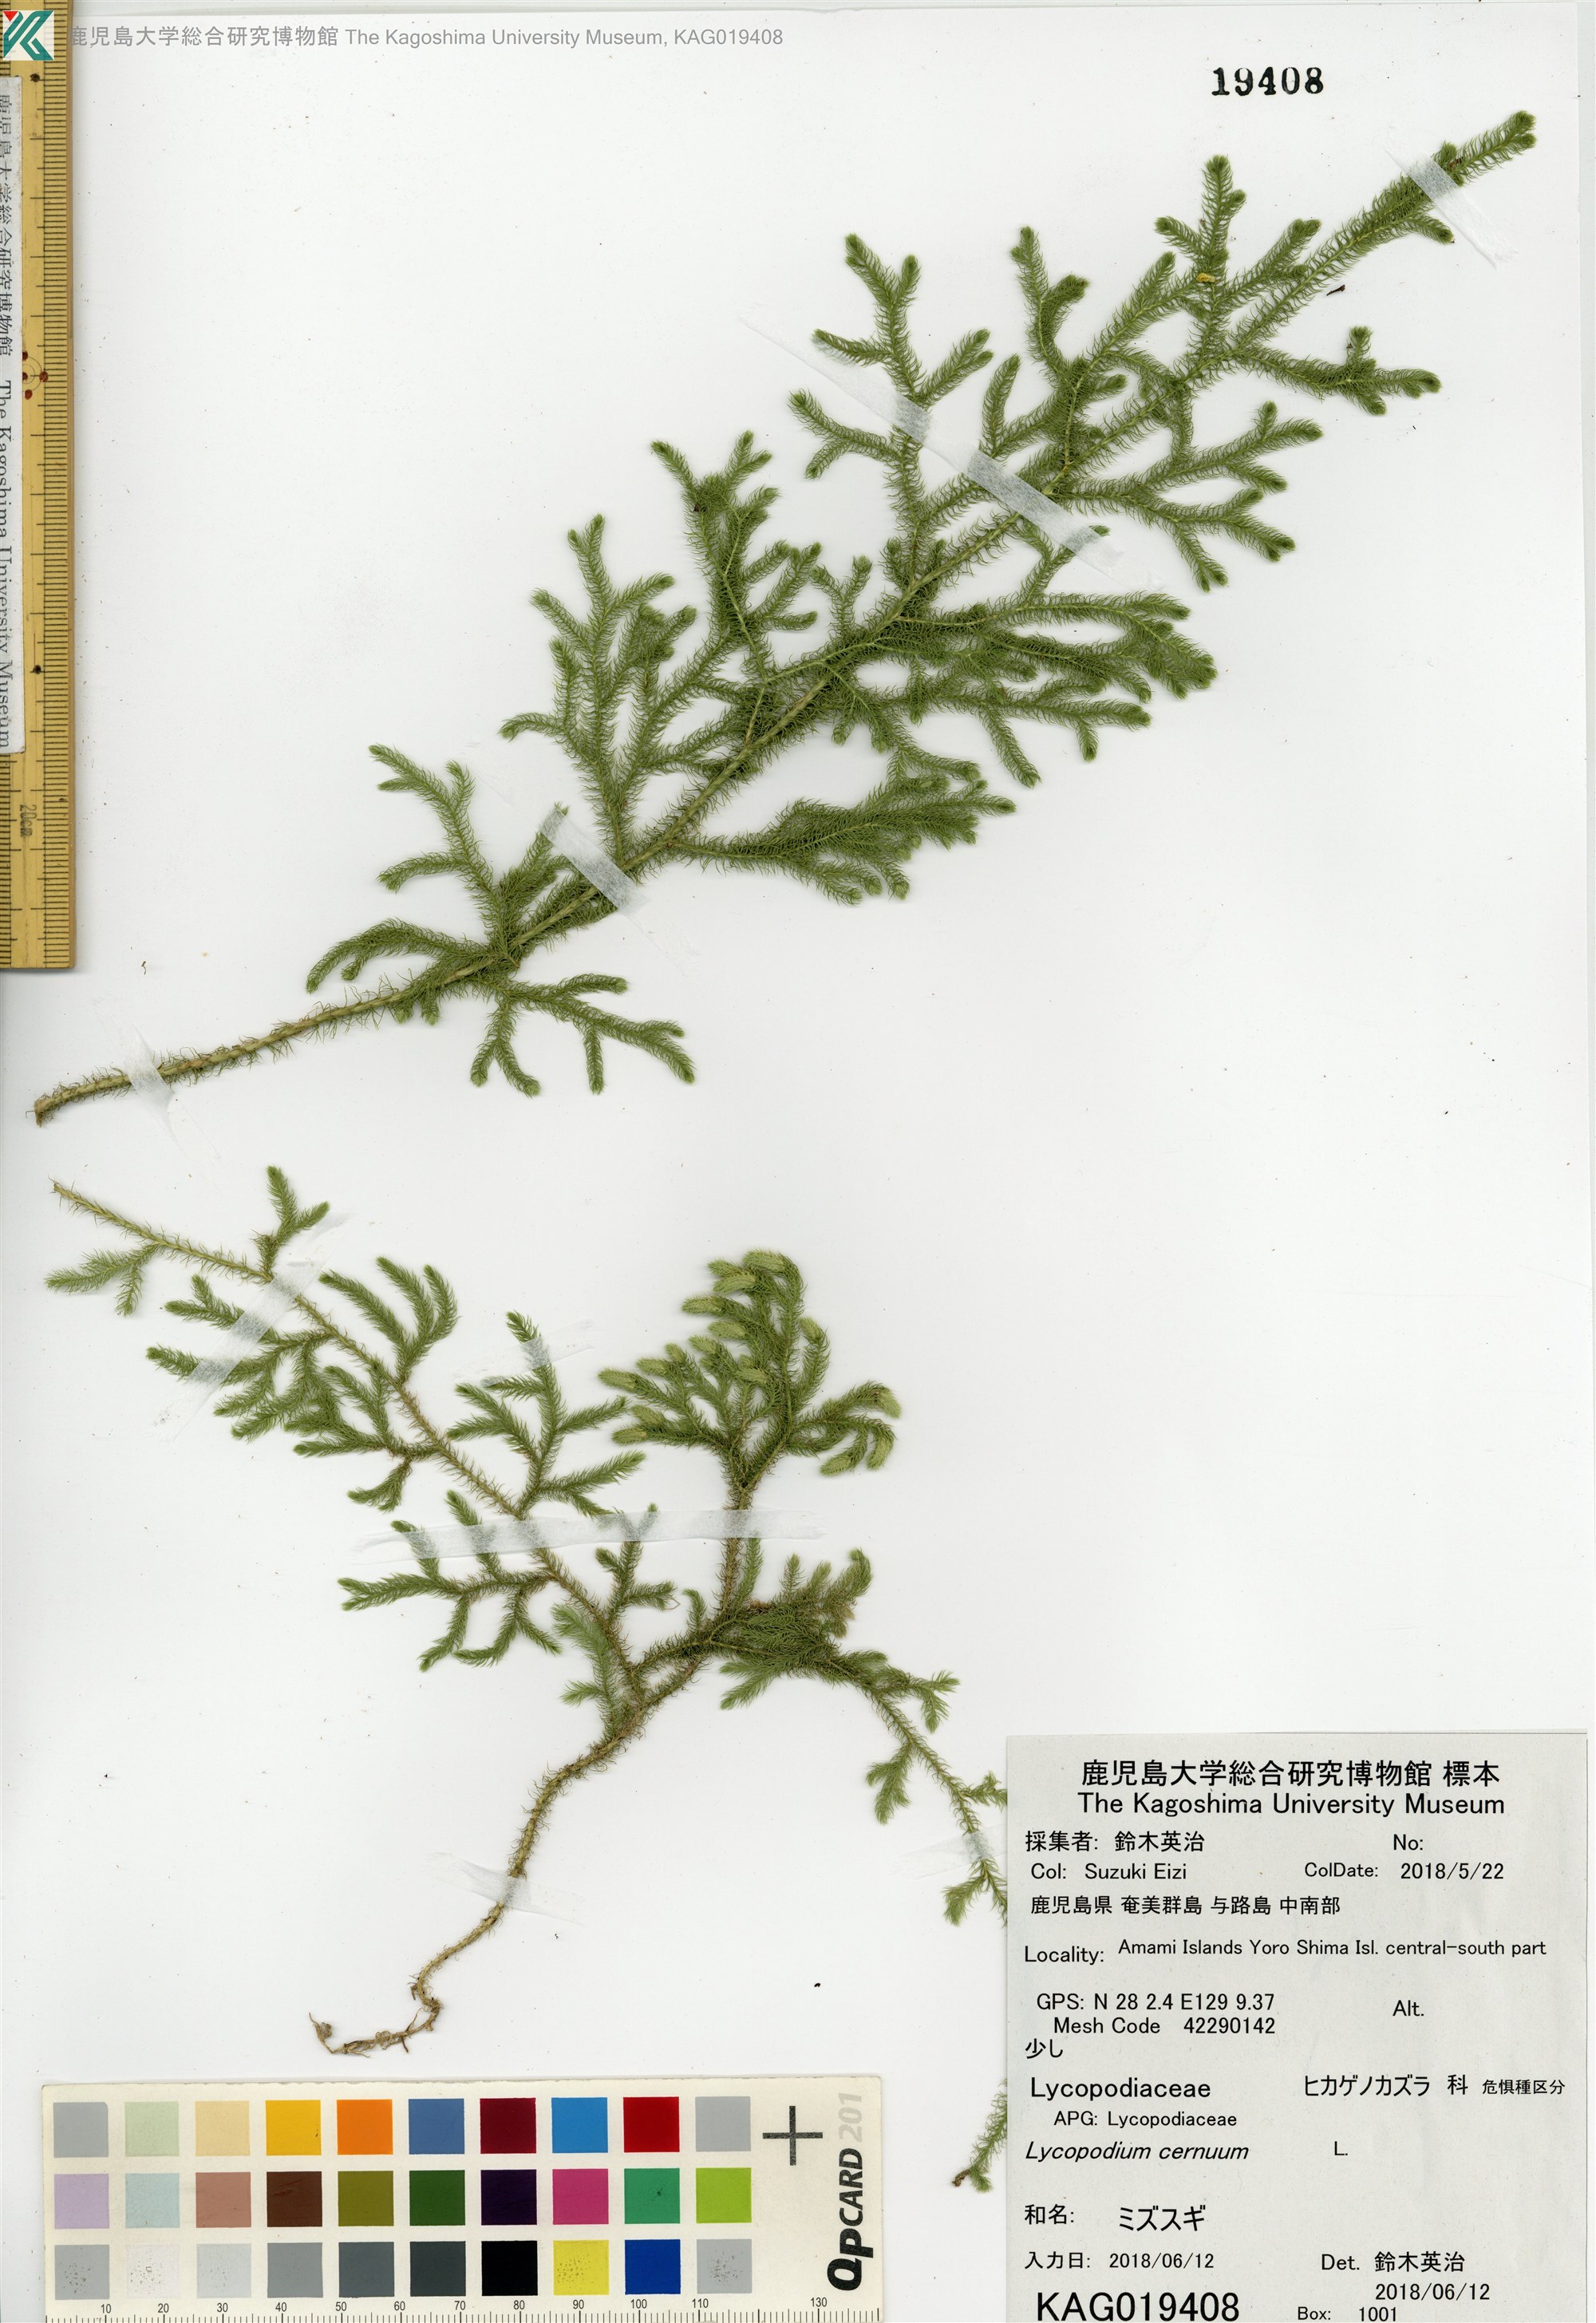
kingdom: Plantae
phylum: Tracheophyta
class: Lycopodiopsida
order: Lycopodiales
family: Lycopodiaceae
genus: Palhinhaea
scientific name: Palhinhaea cernua
